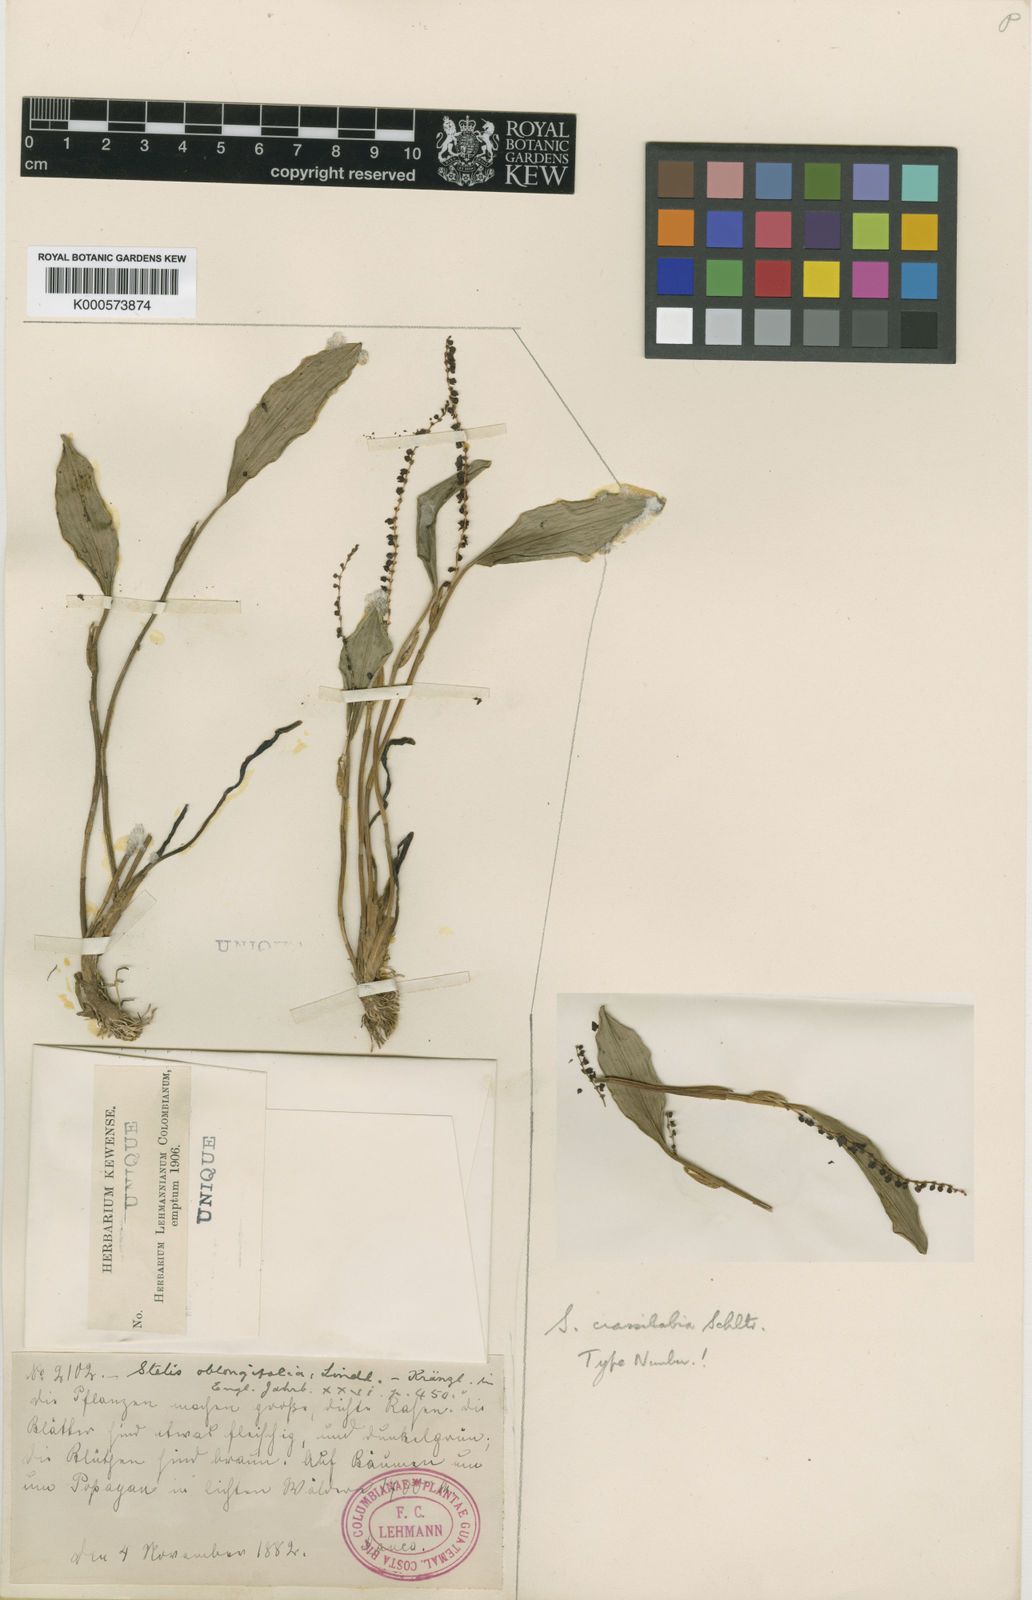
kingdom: Plantae
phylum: Tracheophyta
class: Liliopsida
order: Asparagales
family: Orchidaceae
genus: Stelis
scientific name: Stelis crassilabia
